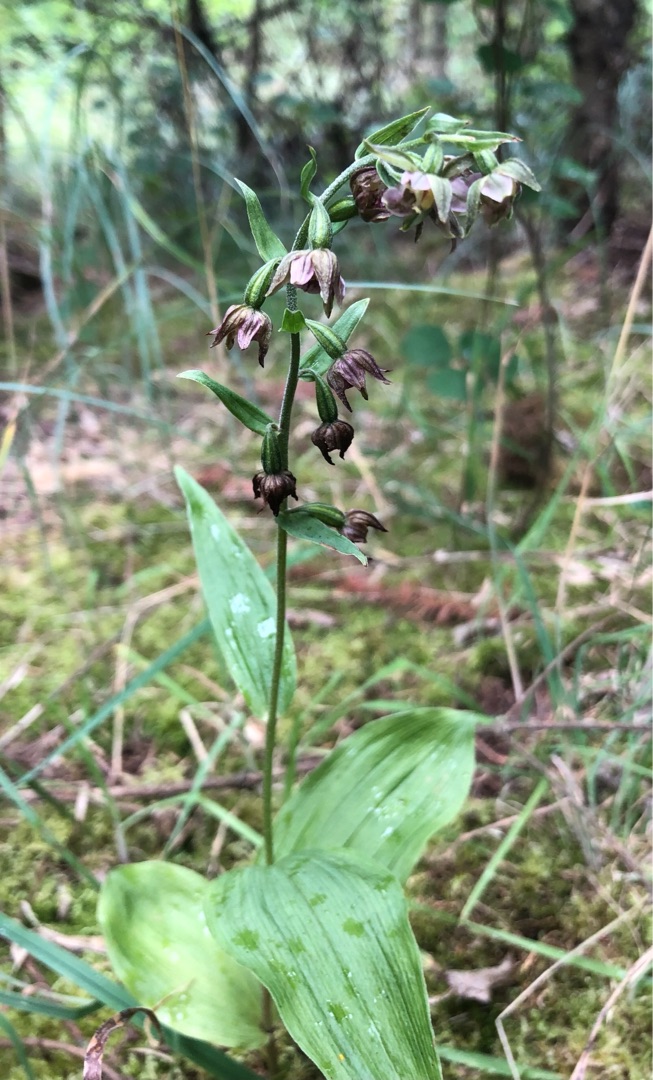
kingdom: Plantae
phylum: Tracheophyta
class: Liliopsida
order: Asparagales
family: Orchidaceae
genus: Epipactis
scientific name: Epipactis helleborine
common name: Skov-hullæbe
